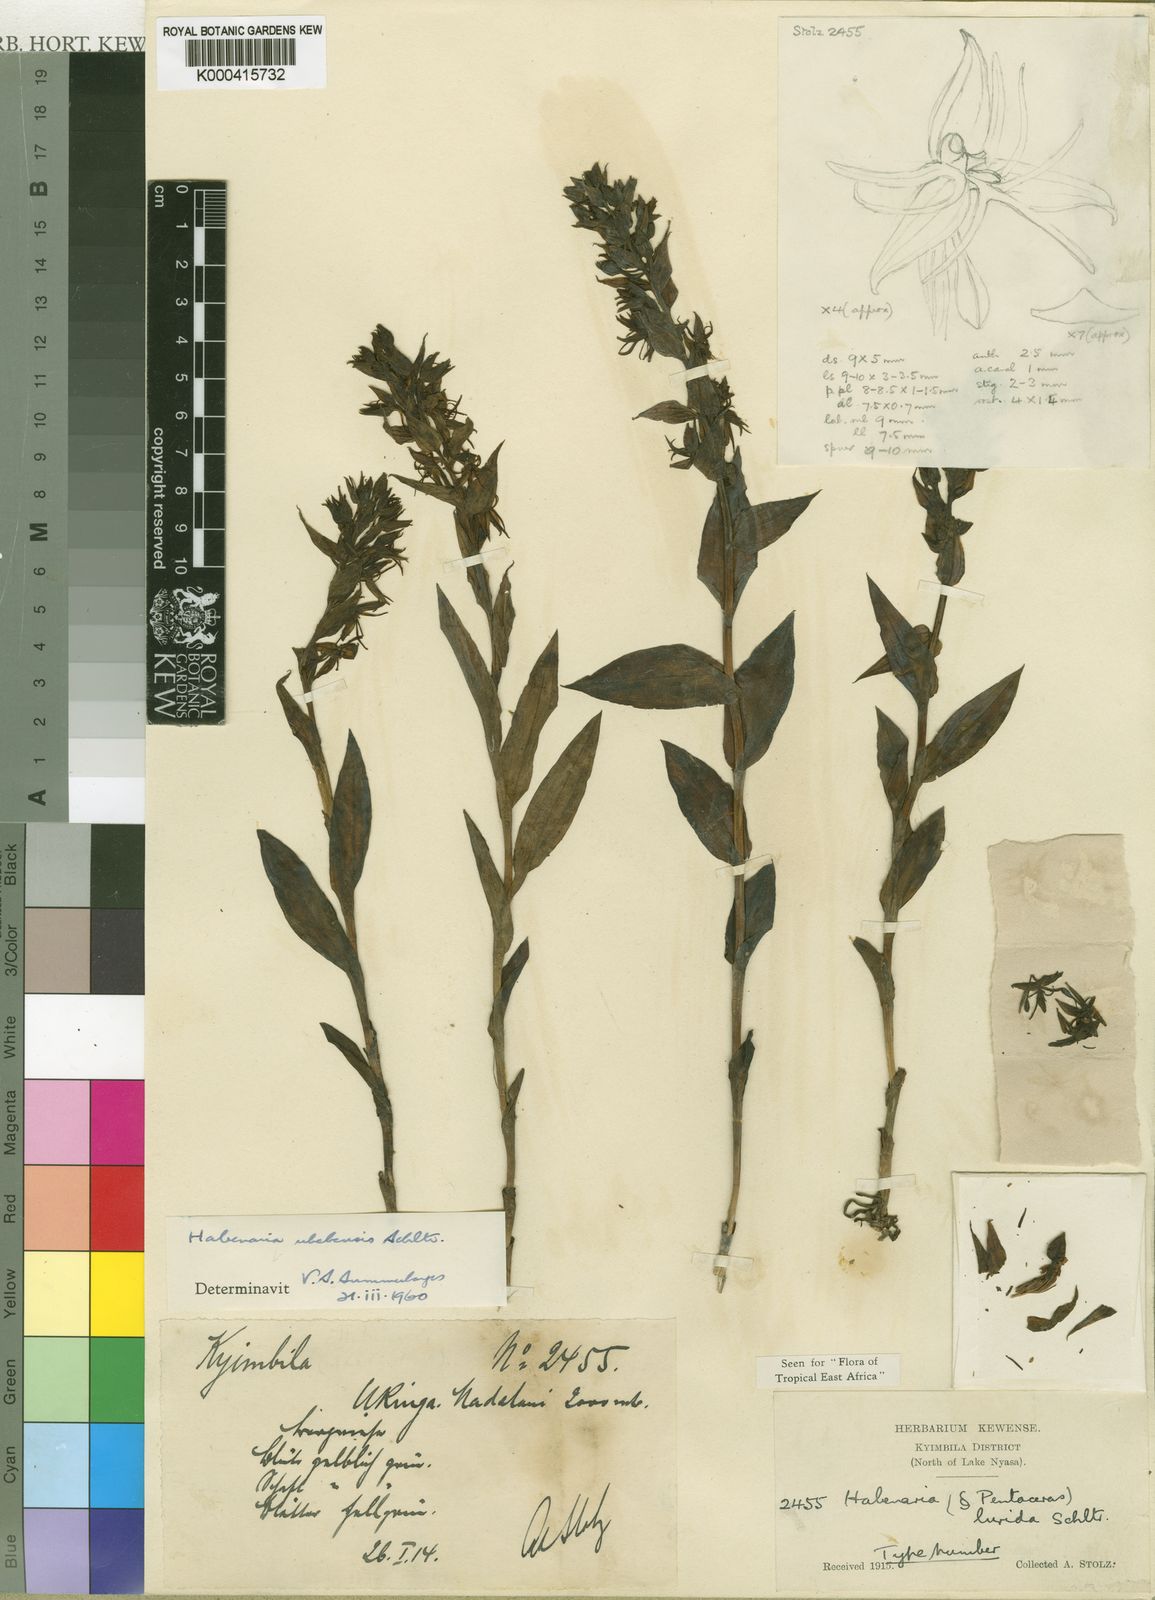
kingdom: Plantae
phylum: Tracheophyta
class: Liliopsida
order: Asparagales
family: Orchidaceae
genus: Habenaria
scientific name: Habenaria uhehensis
